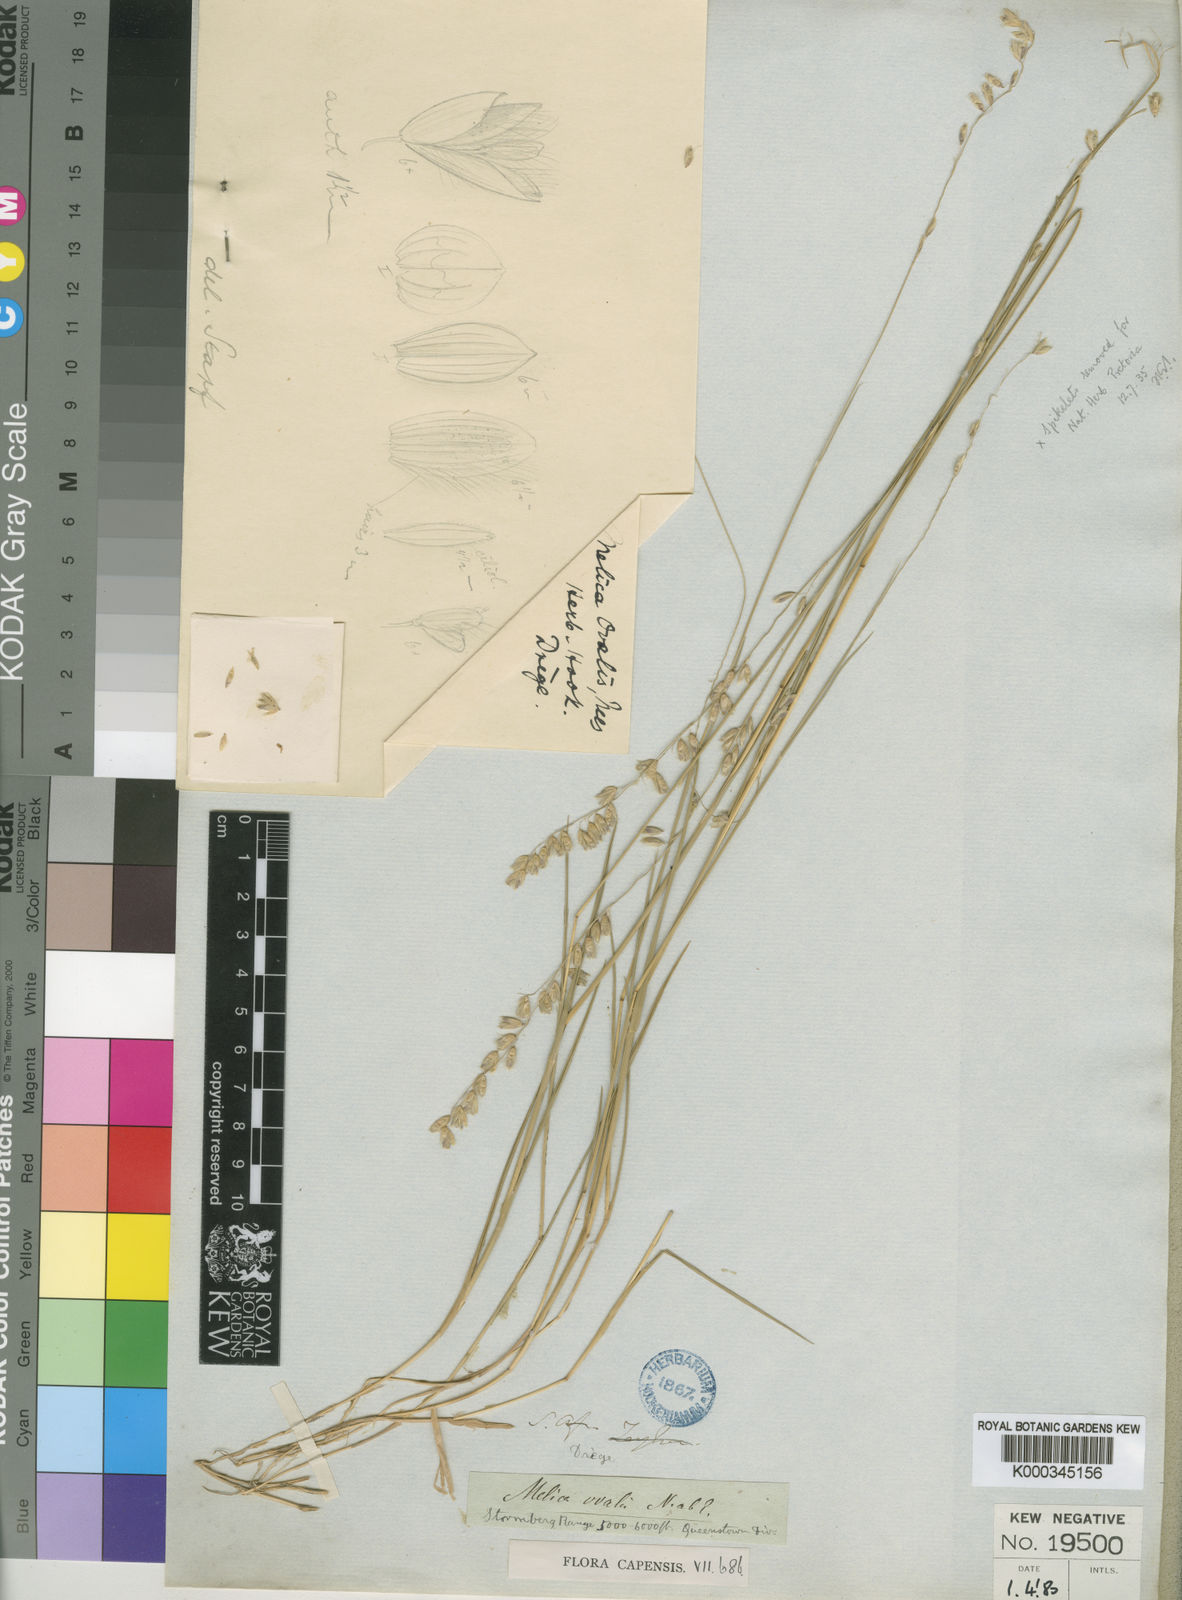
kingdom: Plantae
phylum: Tracheophyta
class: Liliopsida
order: Poales
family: Poaceae
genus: Melica
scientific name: Melica racemosa
